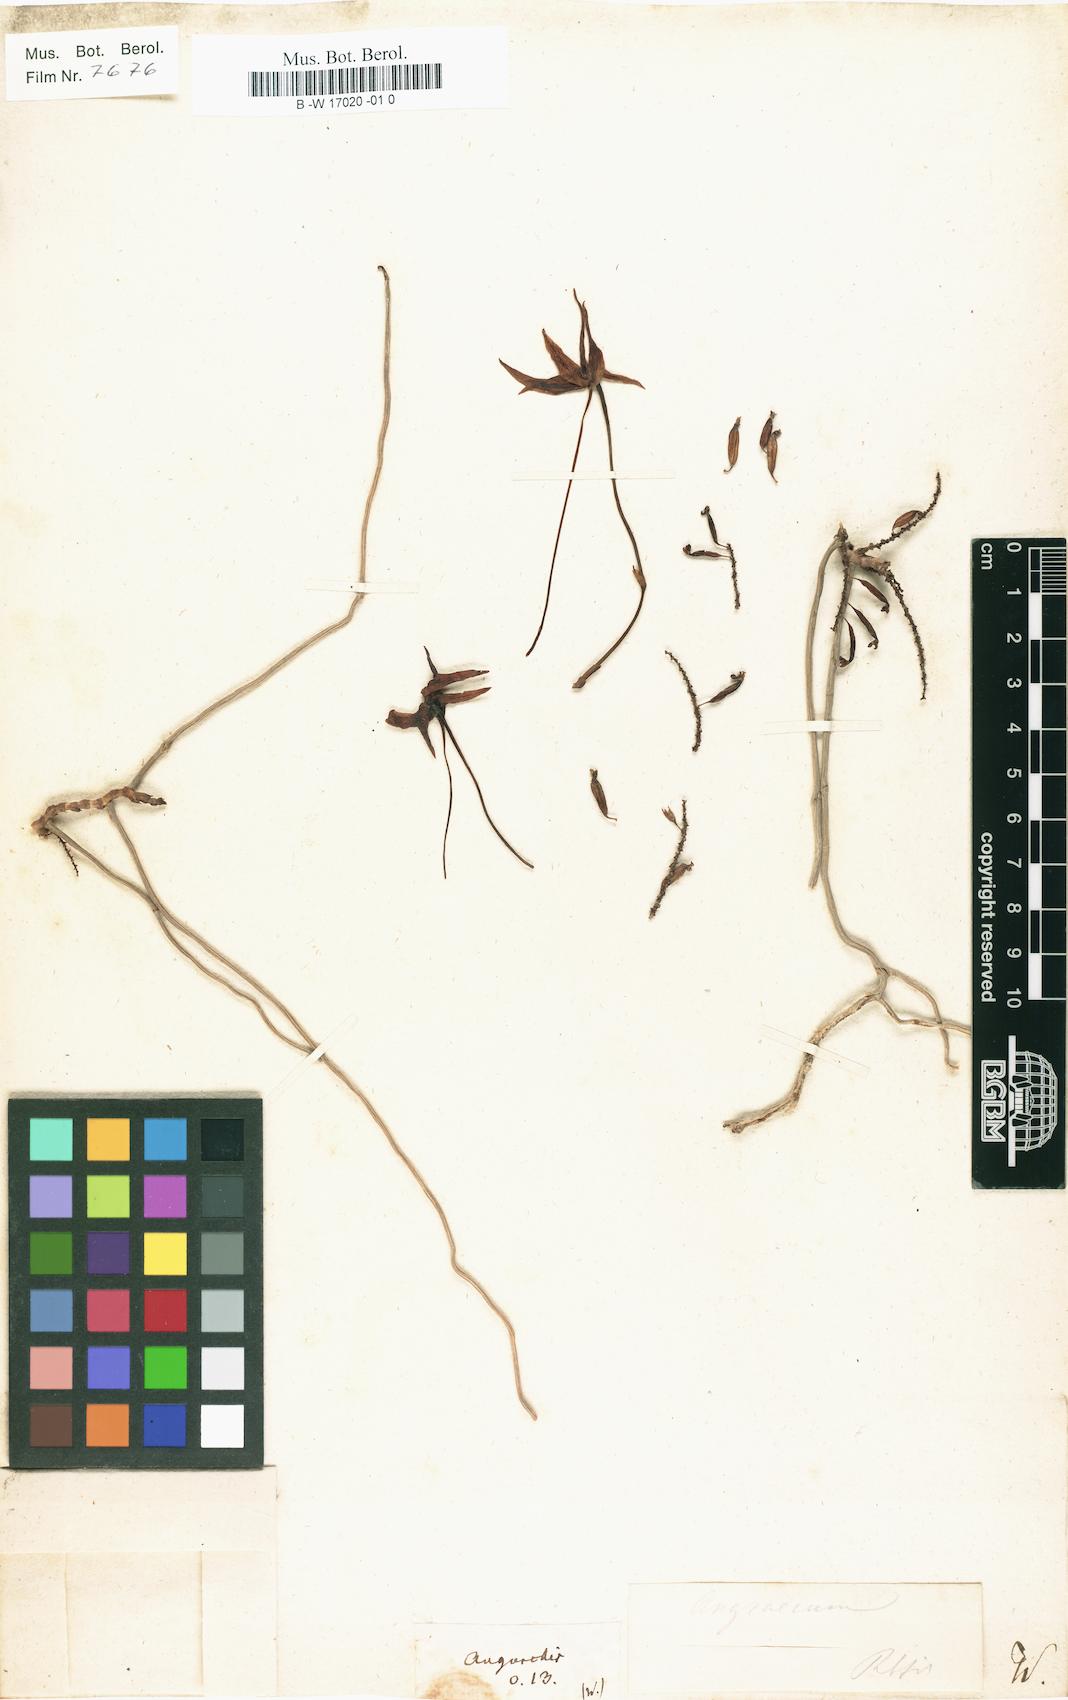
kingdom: Plantae
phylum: Tracheophyta
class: Liliopsida
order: Asparagales
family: Orchidaceae
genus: Angorchis
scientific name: Angorchis
